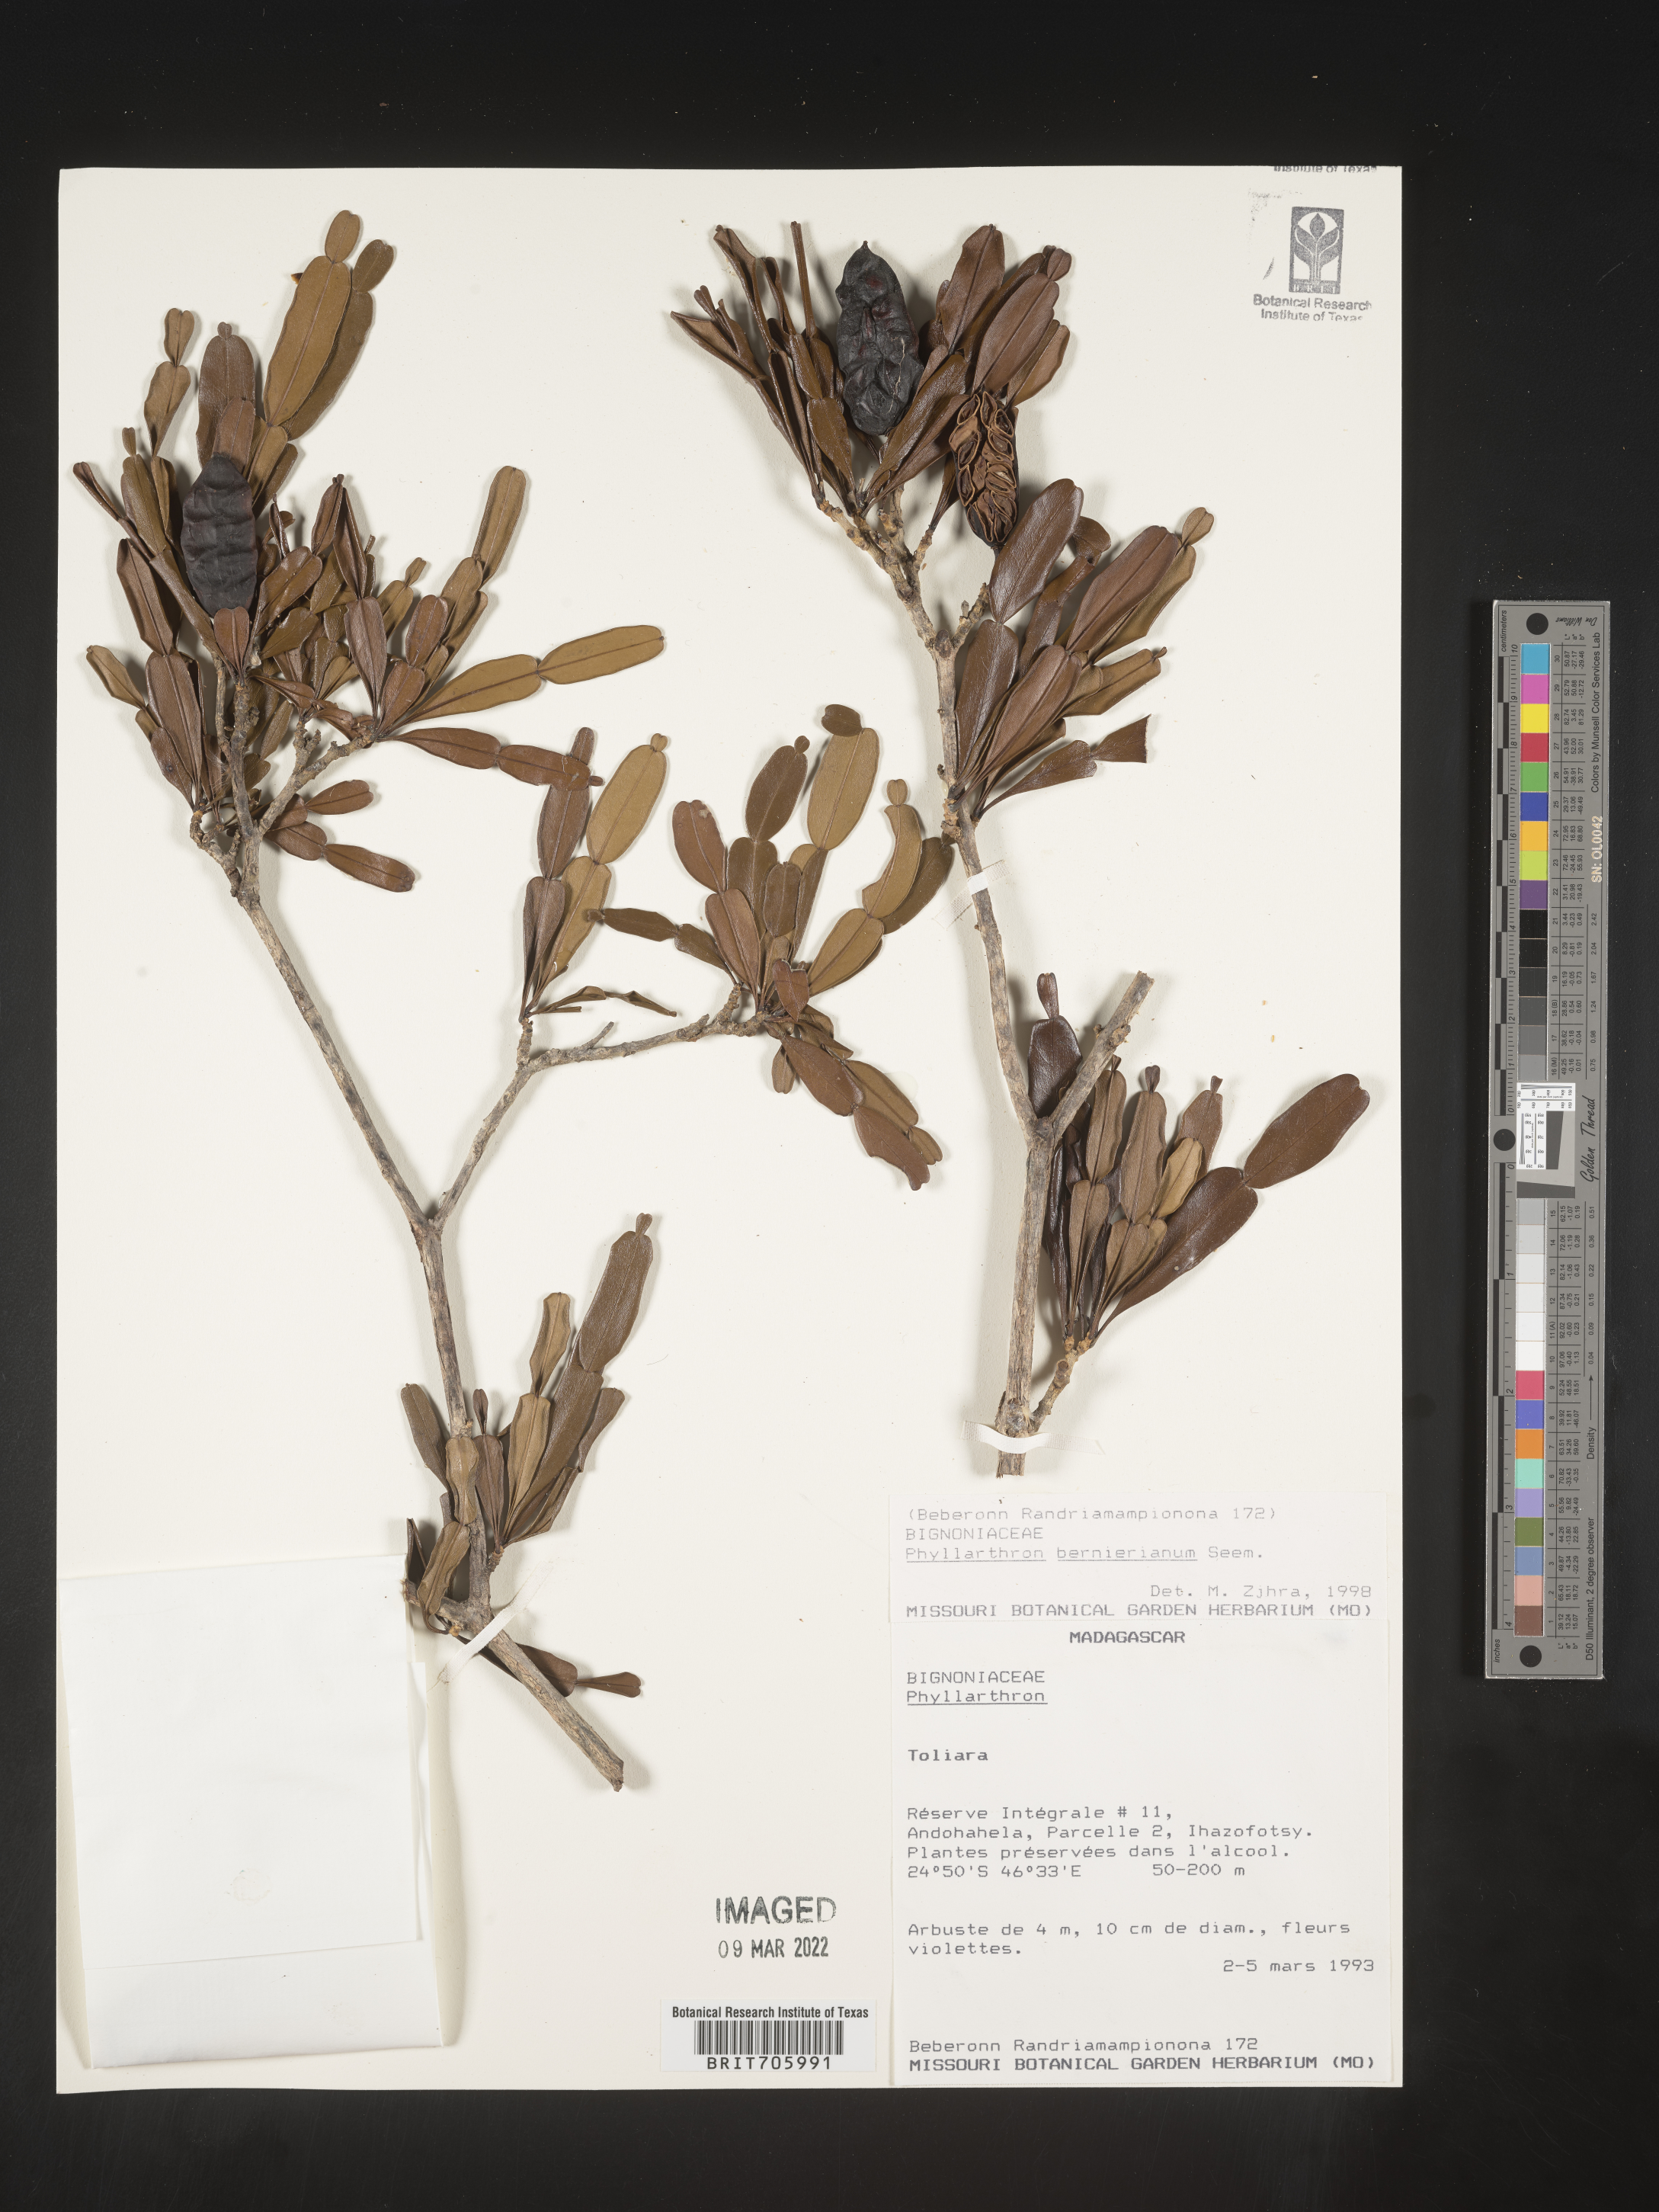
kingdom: Plantae
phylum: Tracheophyta
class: Magnoliopsida
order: Lamiales
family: Bignoniaceae
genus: Phyllarthron
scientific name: Phyllarthron
